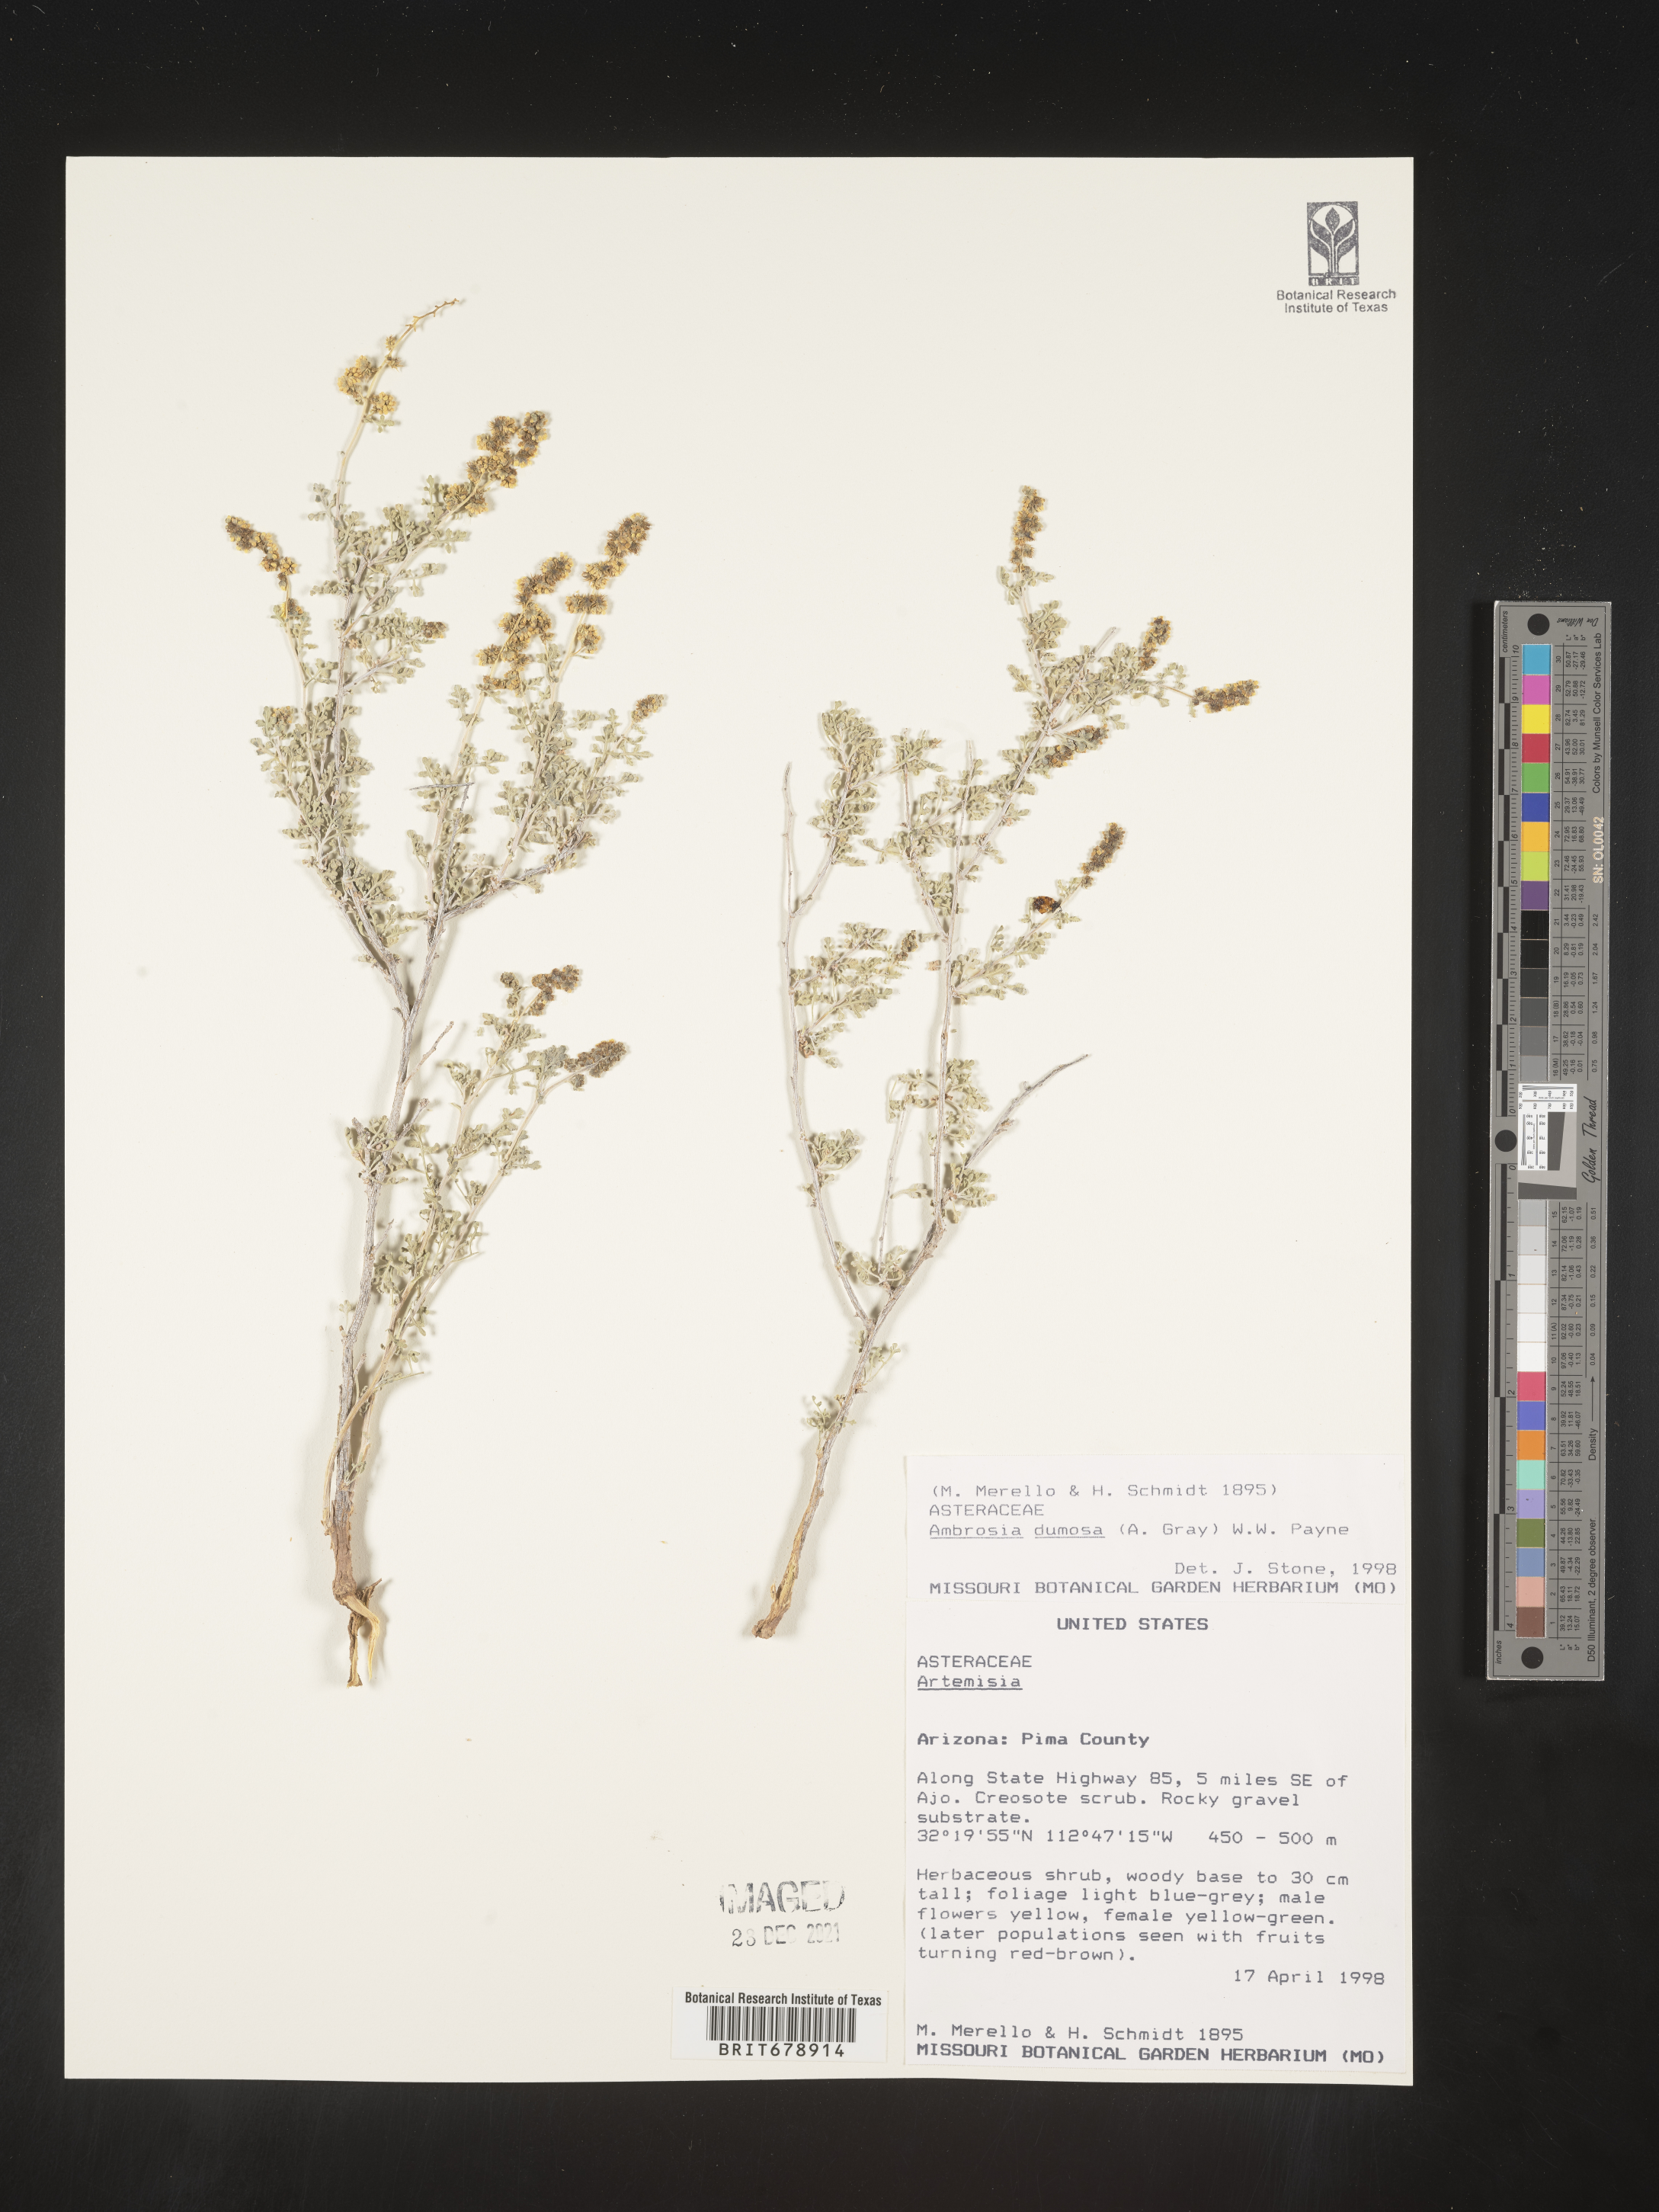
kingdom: Plantae
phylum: Tracheophyta
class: Magnoliopsida
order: Asterales
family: Asteraceae
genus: Ambrosia
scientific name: Ambrosia dumosa
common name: Bur-sage
